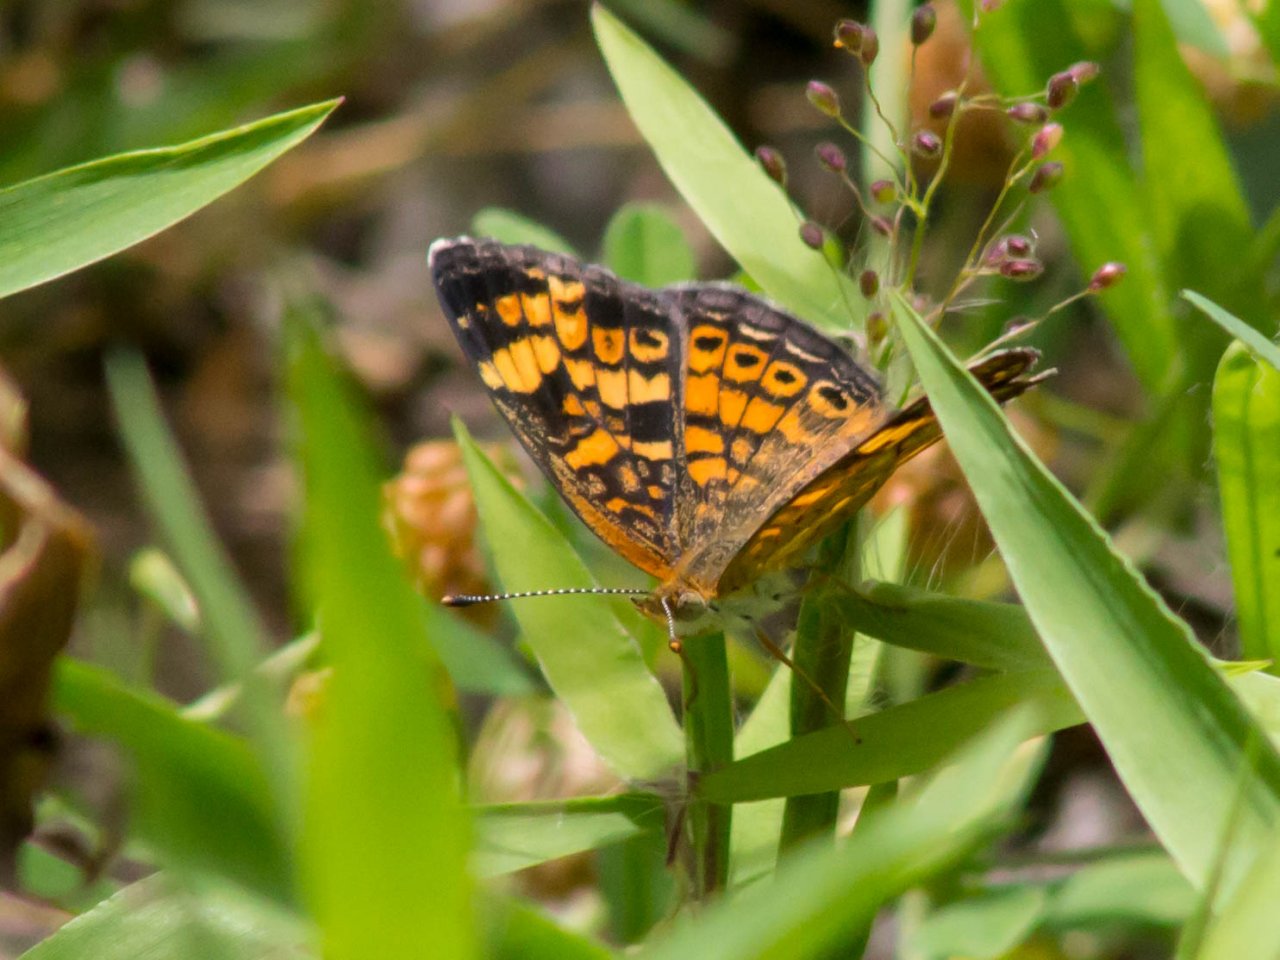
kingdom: Animalia
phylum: Arthropoda
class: Insecta
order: Lepidoptera
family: Nymphalidae
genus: Phyciodes
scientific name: Phyciodes tharos
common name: Pearl Crescent
